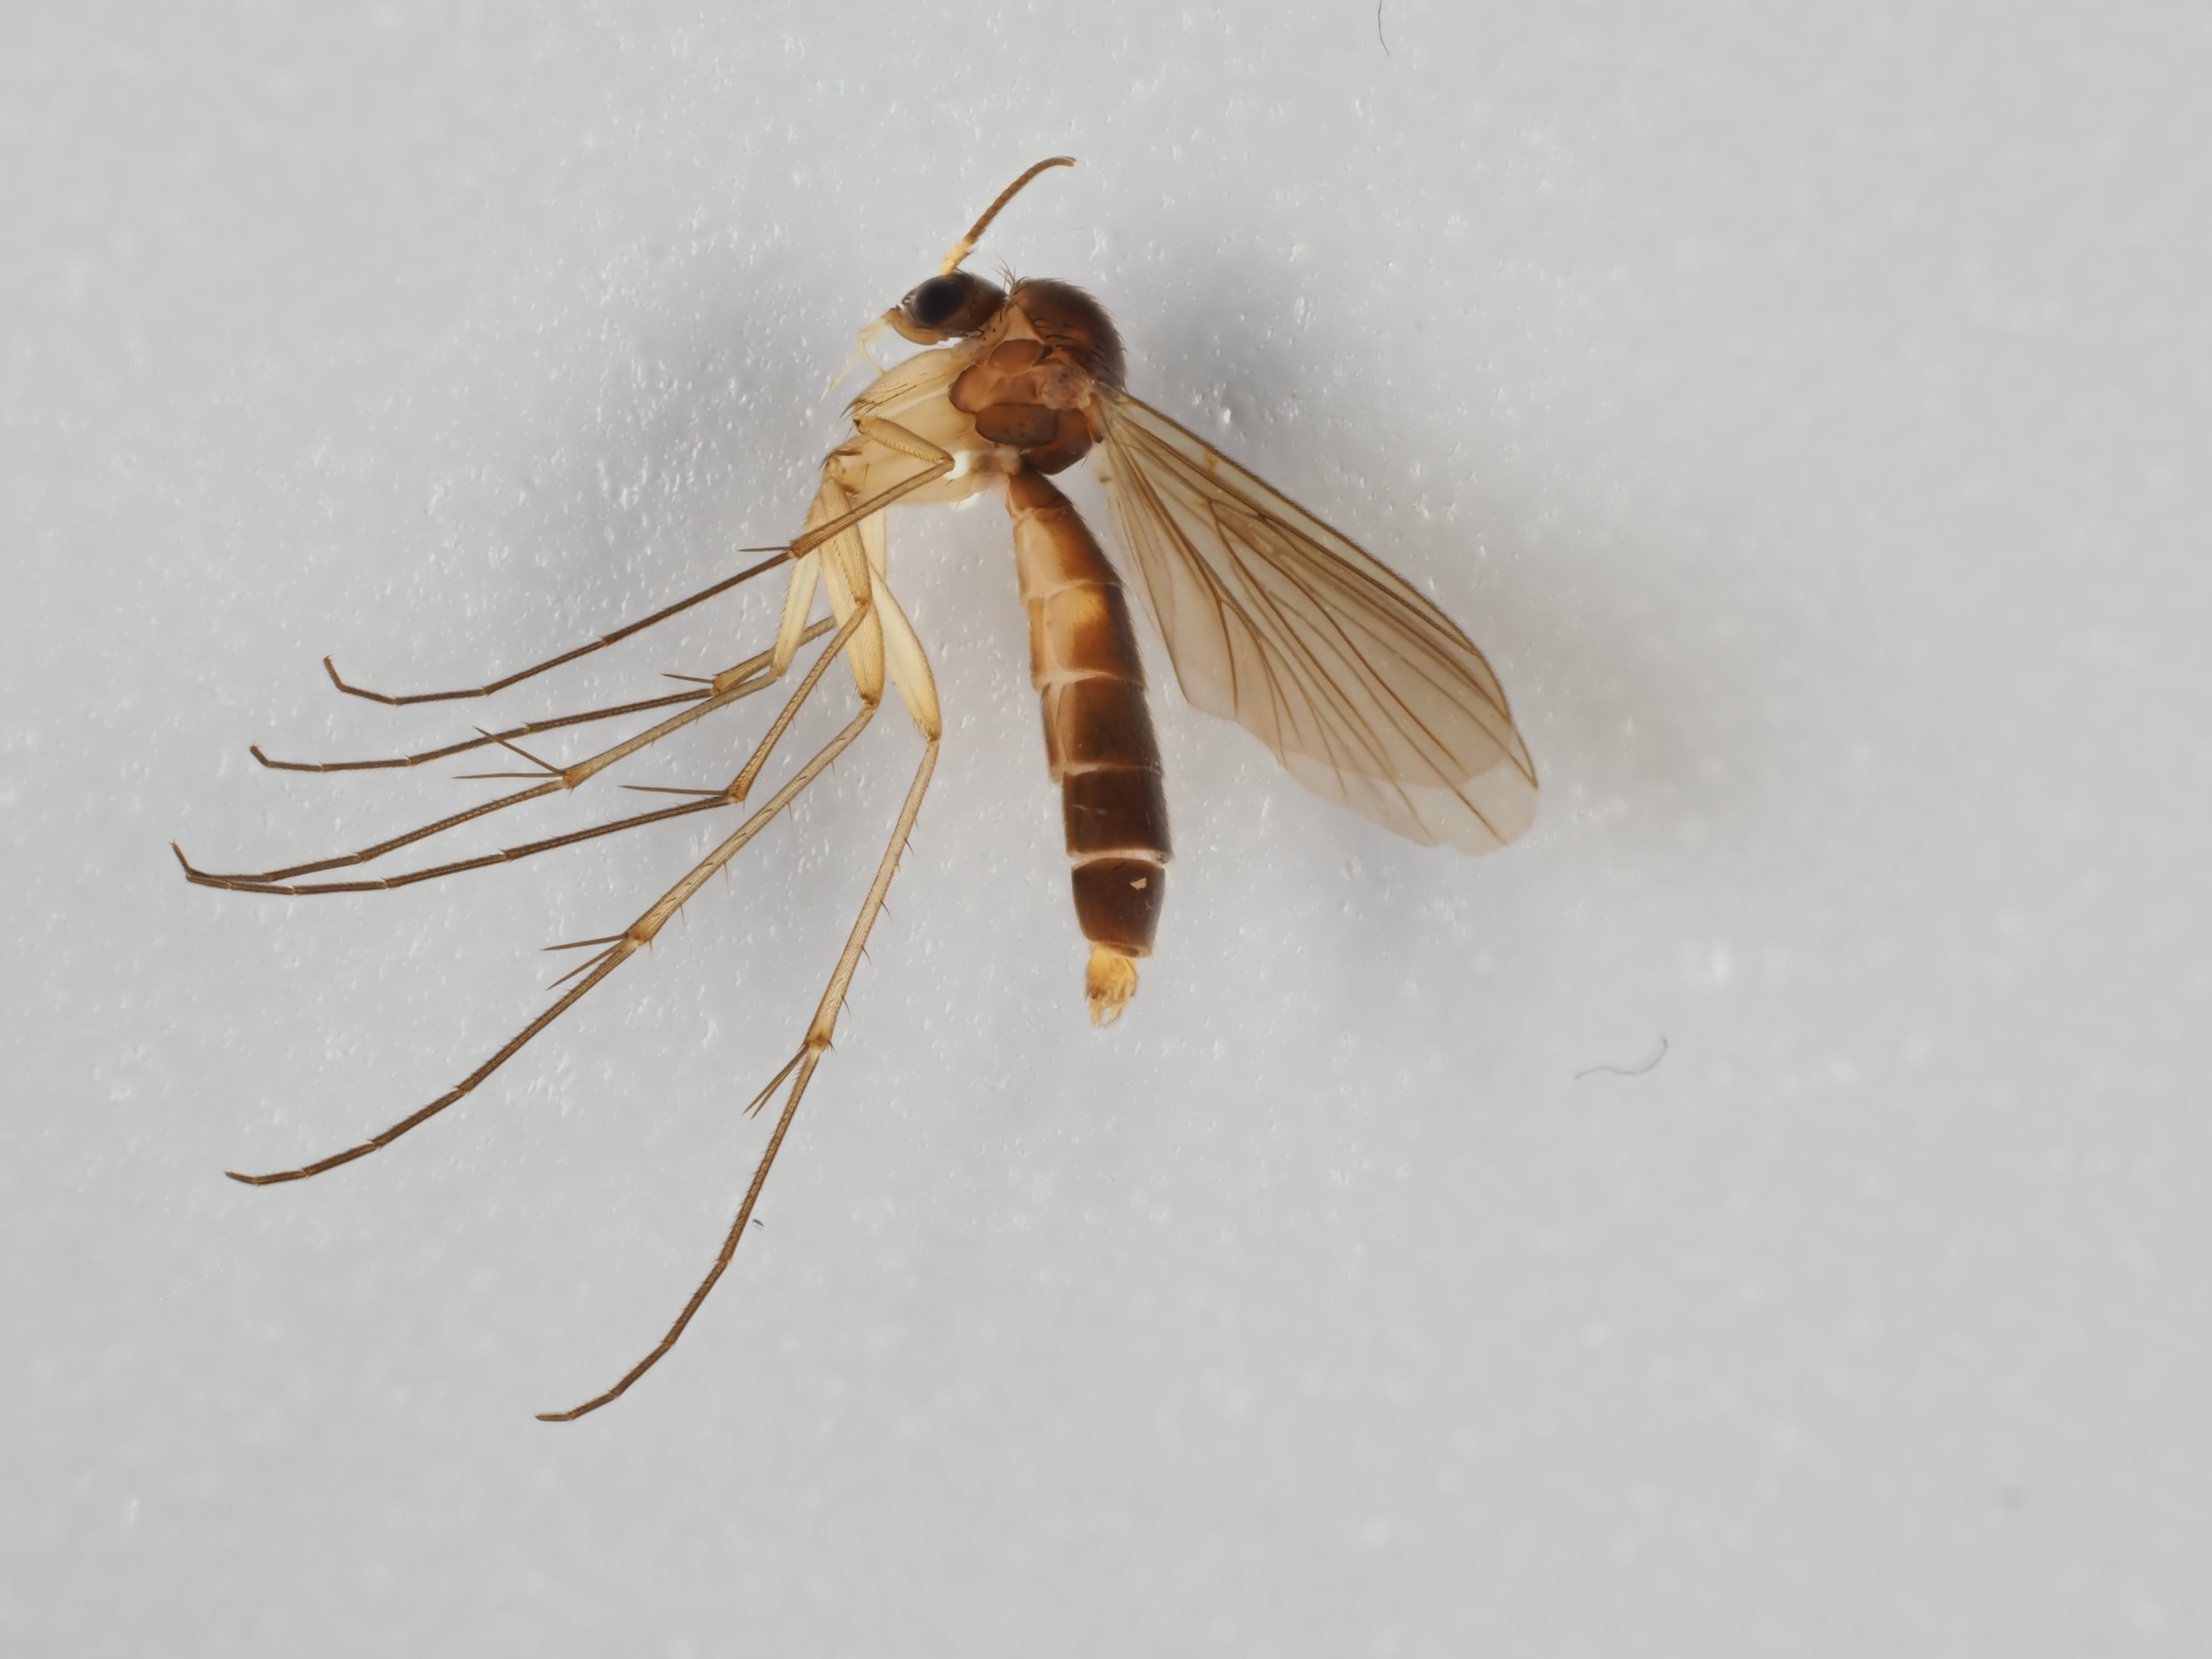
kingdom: Animalia
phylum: Arthropoda
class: Insecta
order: Diptera
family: Mycetophilidae
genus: Exechia
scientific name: Exechia fusca
